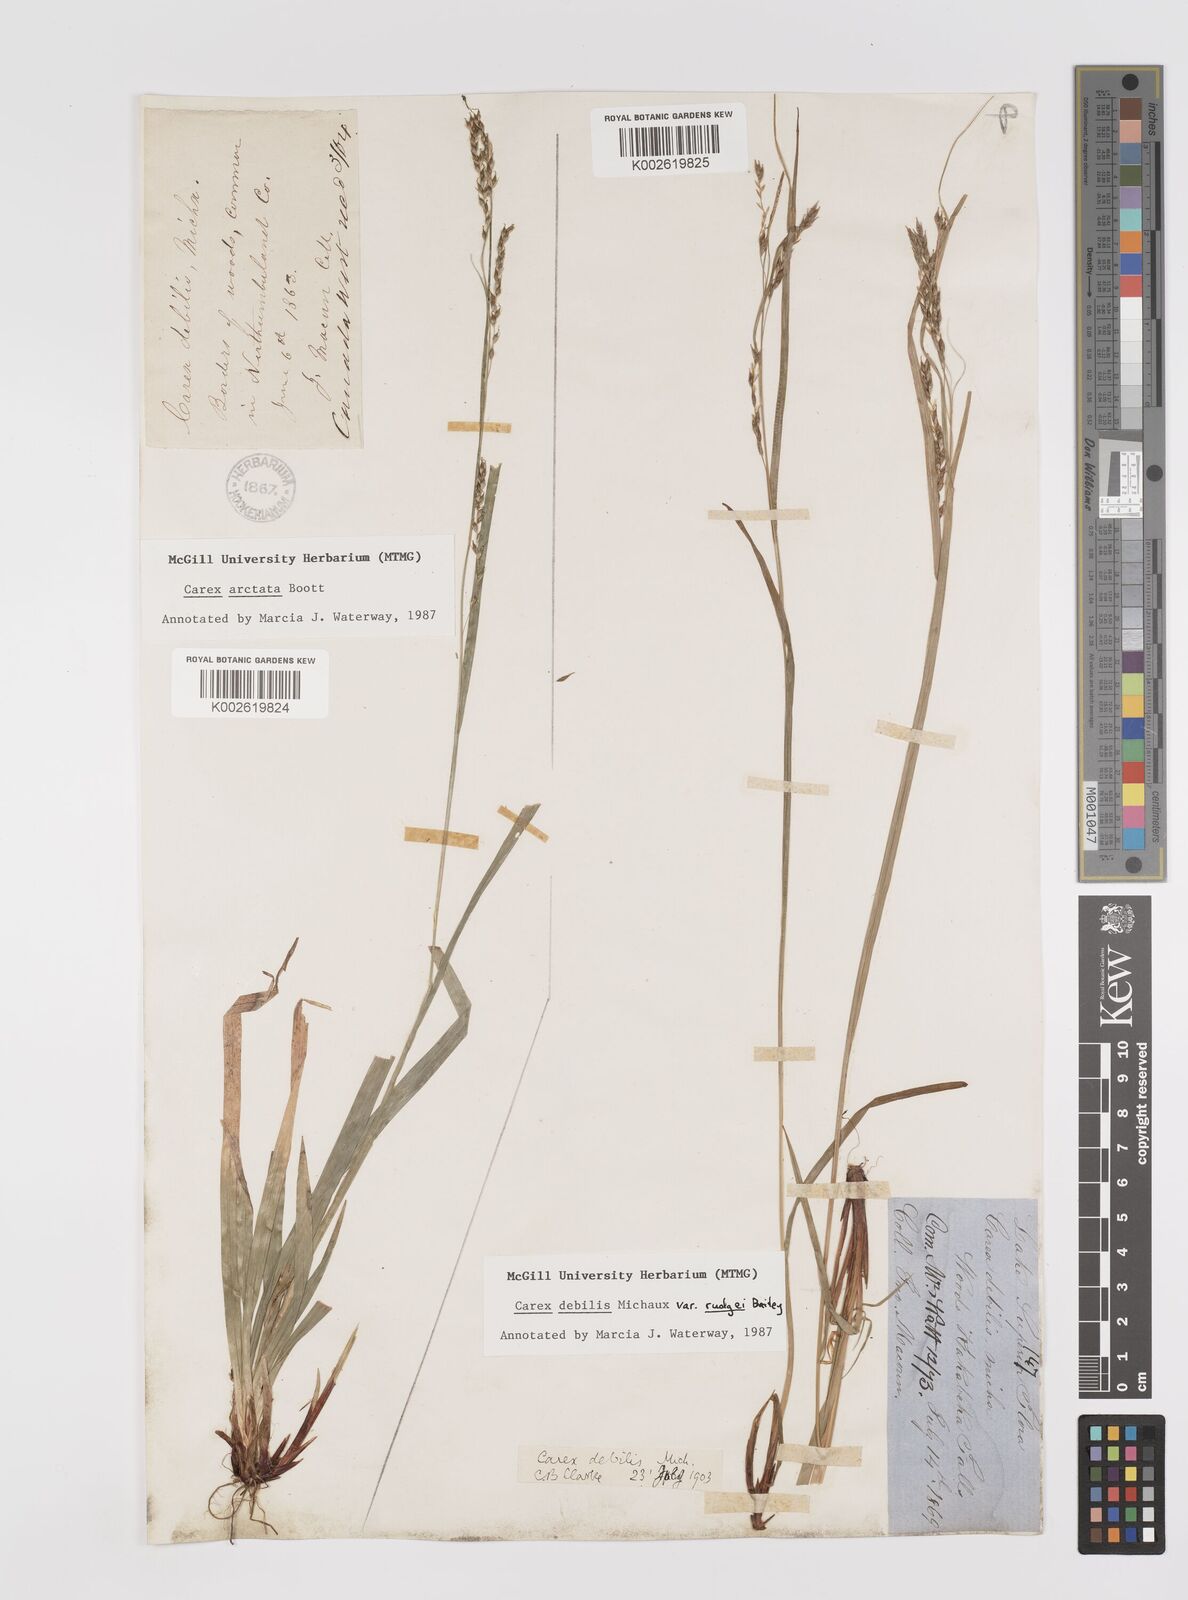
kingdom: Plantae
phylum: Tracheophyta
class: Liliopsida
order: Poales
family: Cyperaceae
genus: Carex
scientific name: Carex debilis
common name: White-edge sedge
